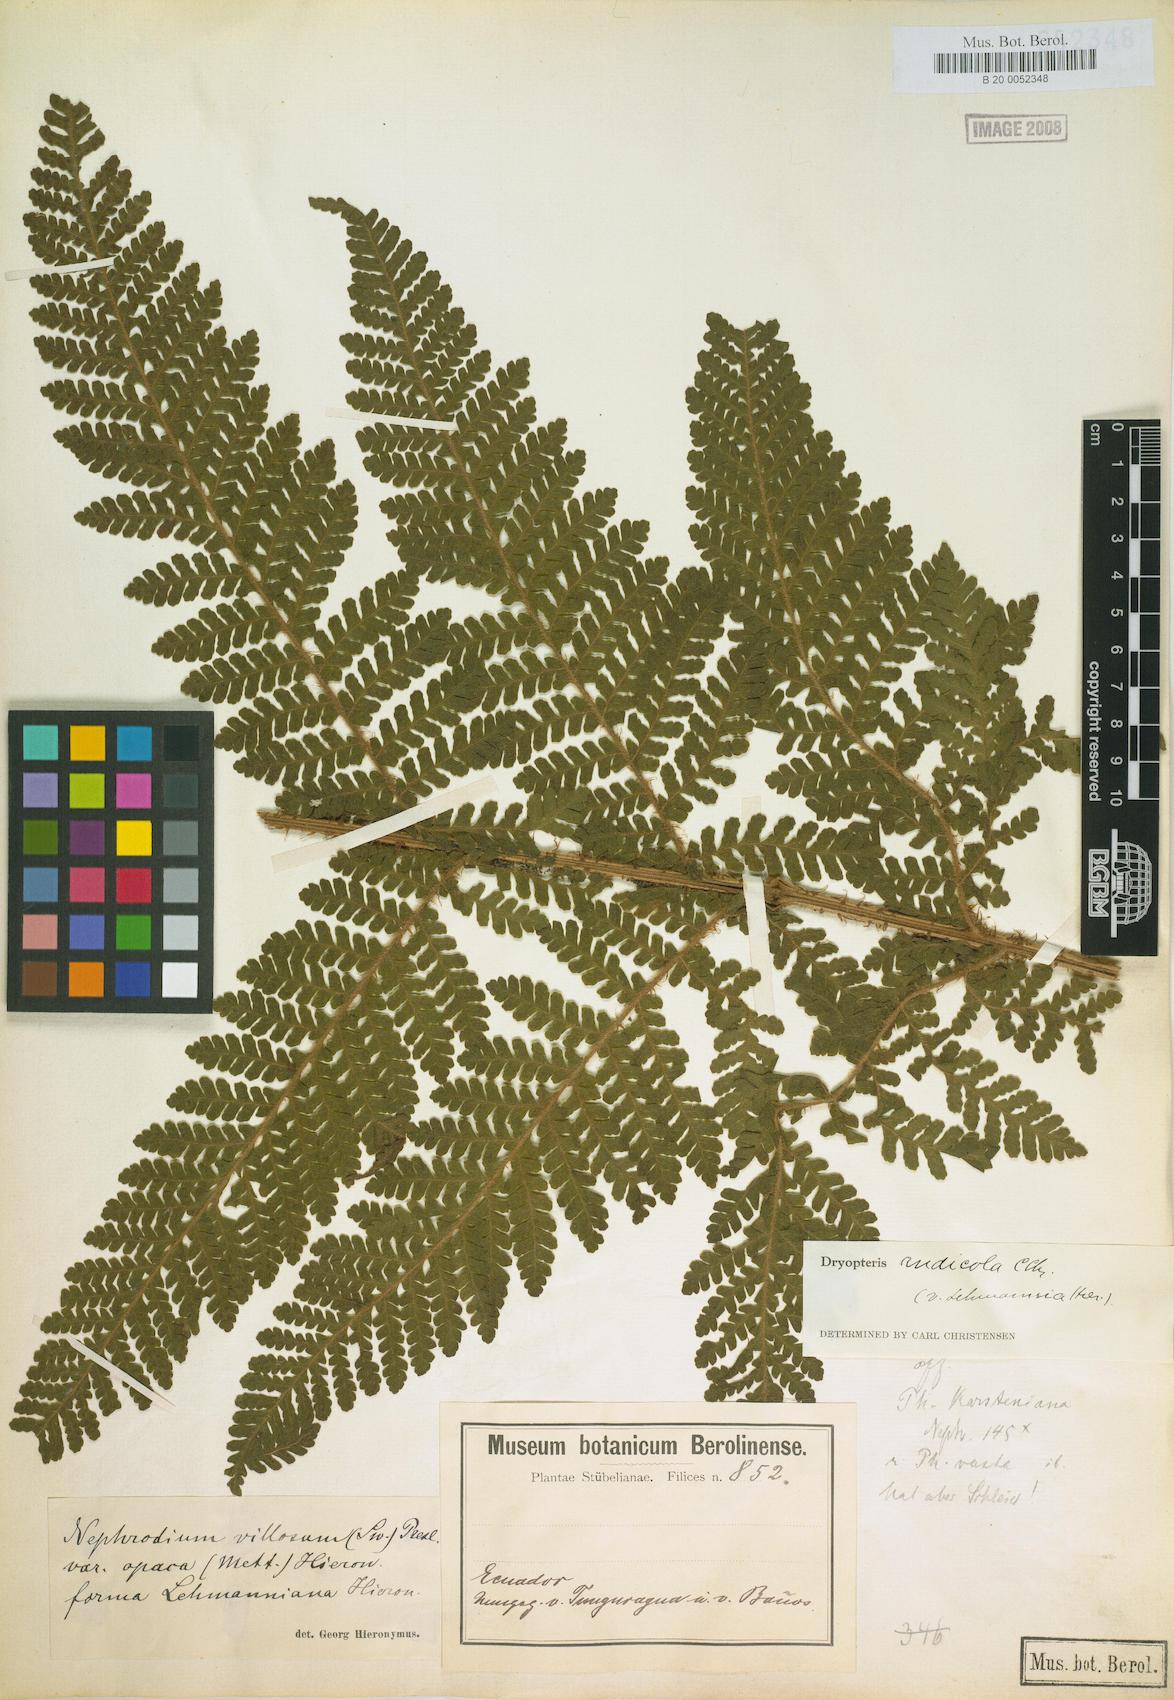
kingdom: Plantae
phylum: Tracheophyta
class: Polypodiopsida
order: Polypodiales
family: Dryopteridaceae
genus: Megalastrum
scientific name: Megalastrum andicola
